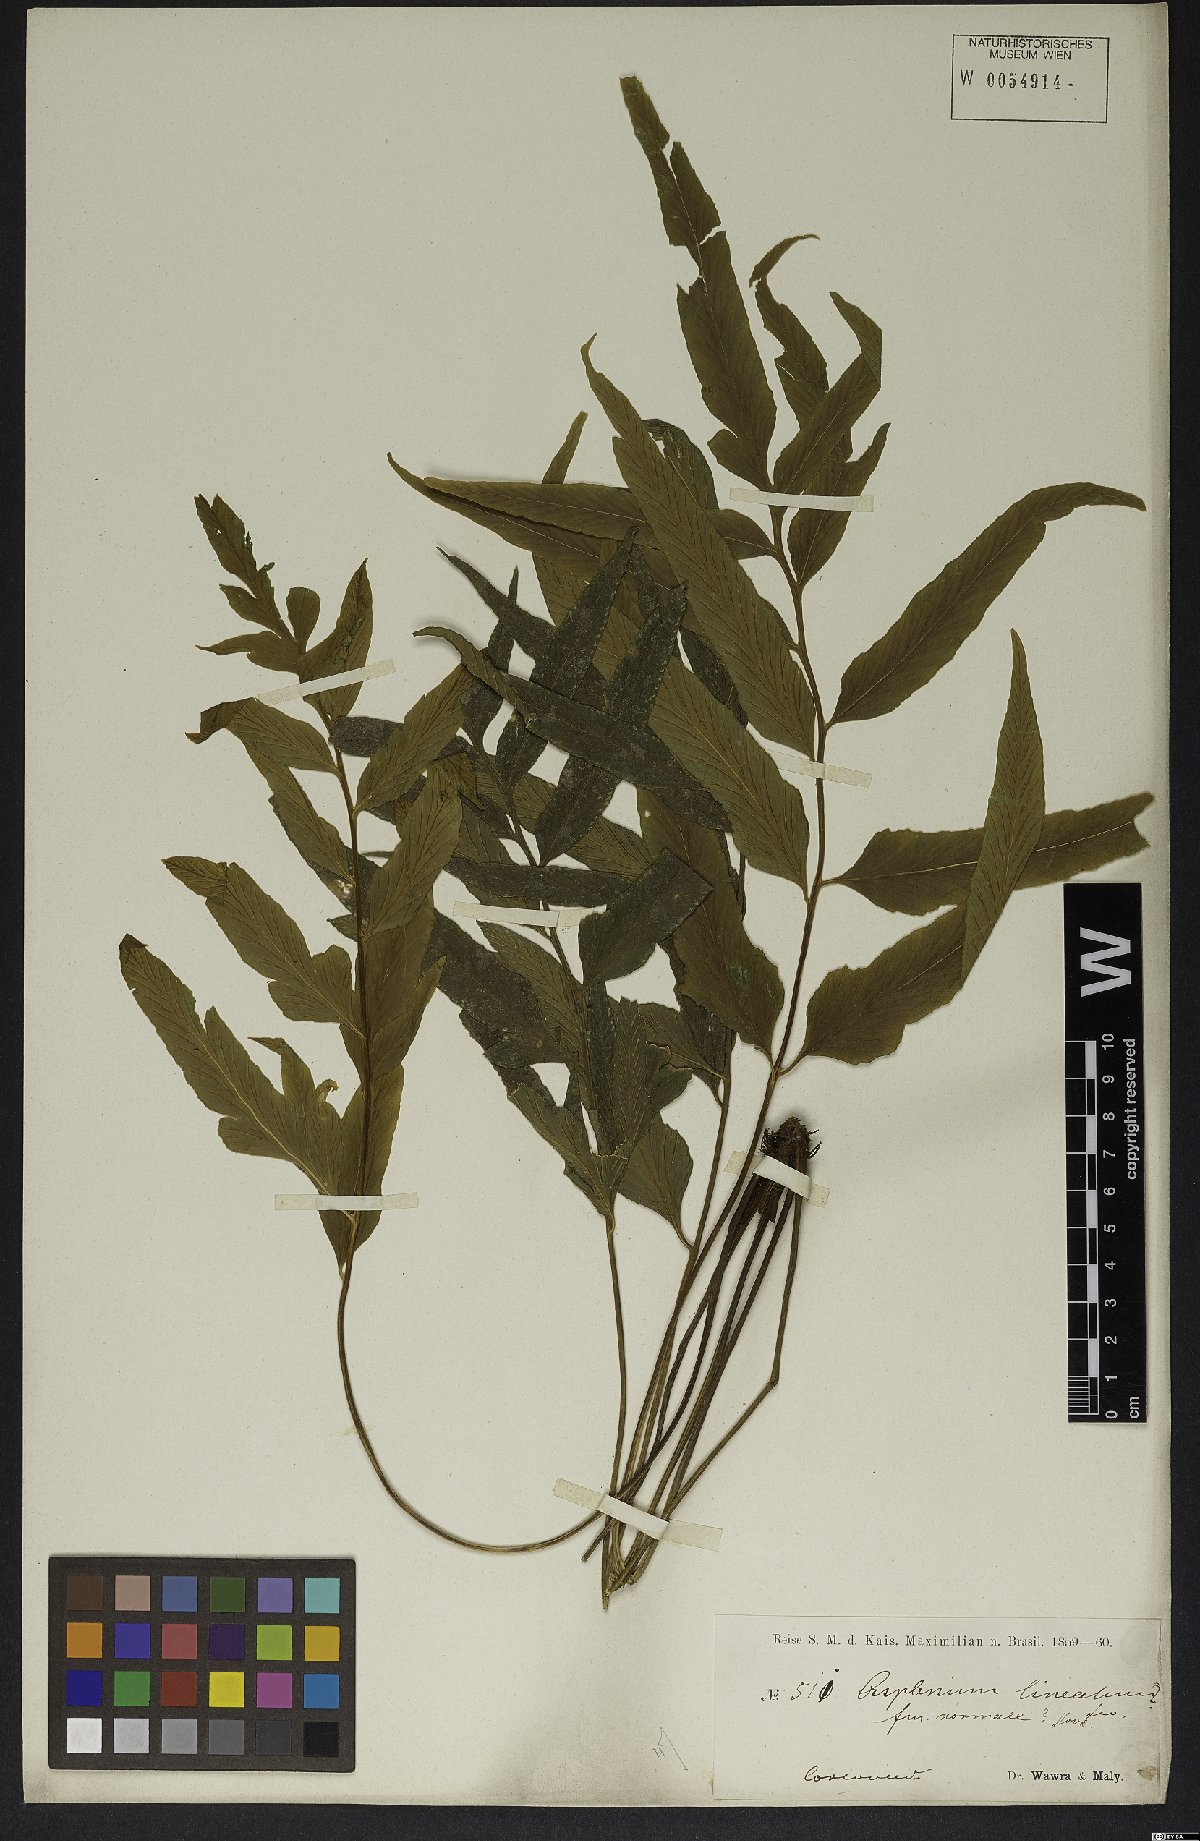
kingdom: Plantae
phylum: Tracheophyta
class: Polypodiopsida
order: Polypodiales
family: Aspleniaceae
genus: Asplenium
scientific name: Asplenium oligophyllum
